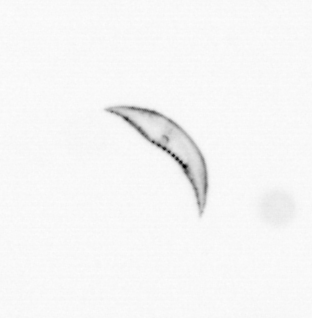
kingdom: Chromista
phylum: Ochrophyta
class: Bacillariophyceae
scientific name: Bacillariophyceae
